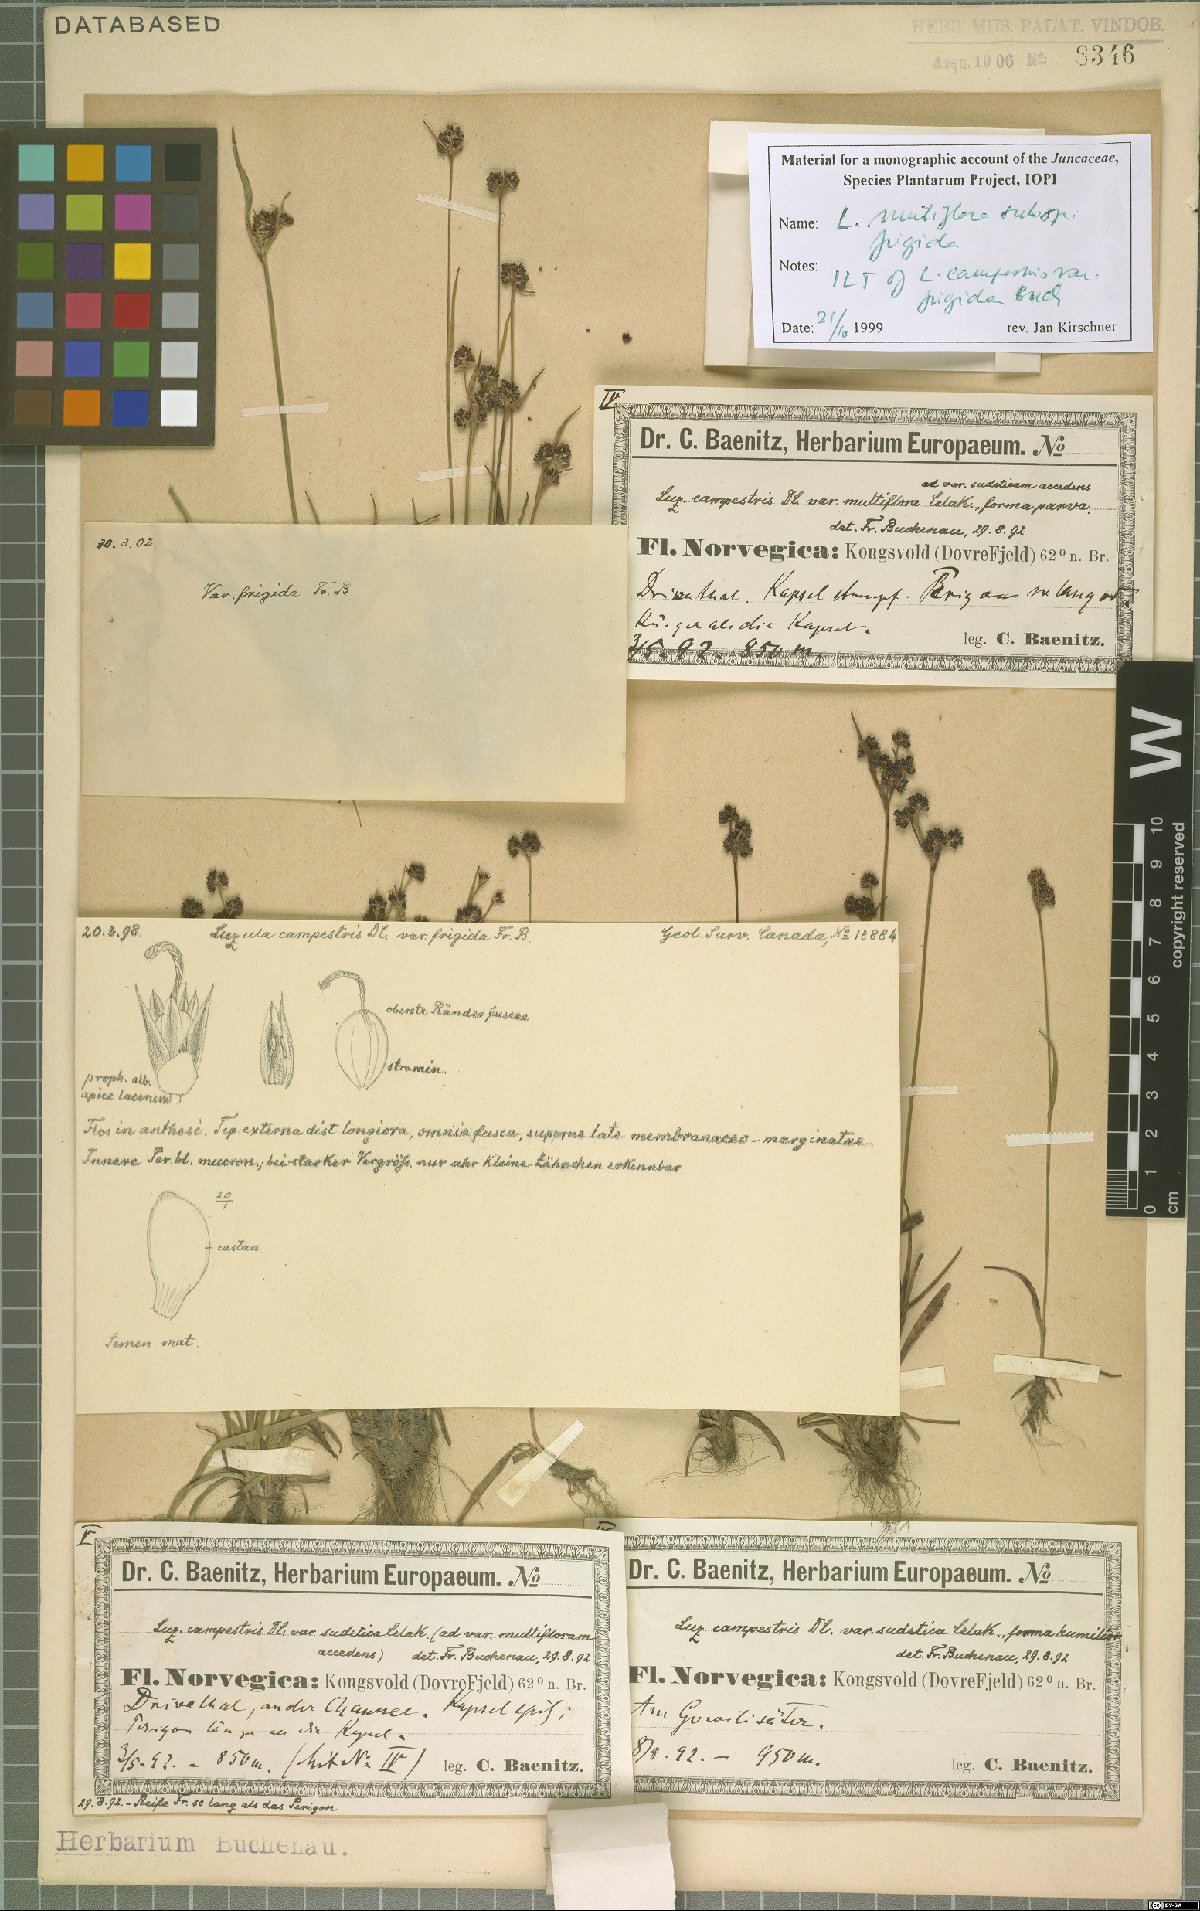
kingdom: Plantae
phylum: Tracheophyta
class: Liliopsida
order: Poales
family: Juncaceae
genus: Luzula
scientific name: Luzula multiflora
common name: Heath wood-rush
